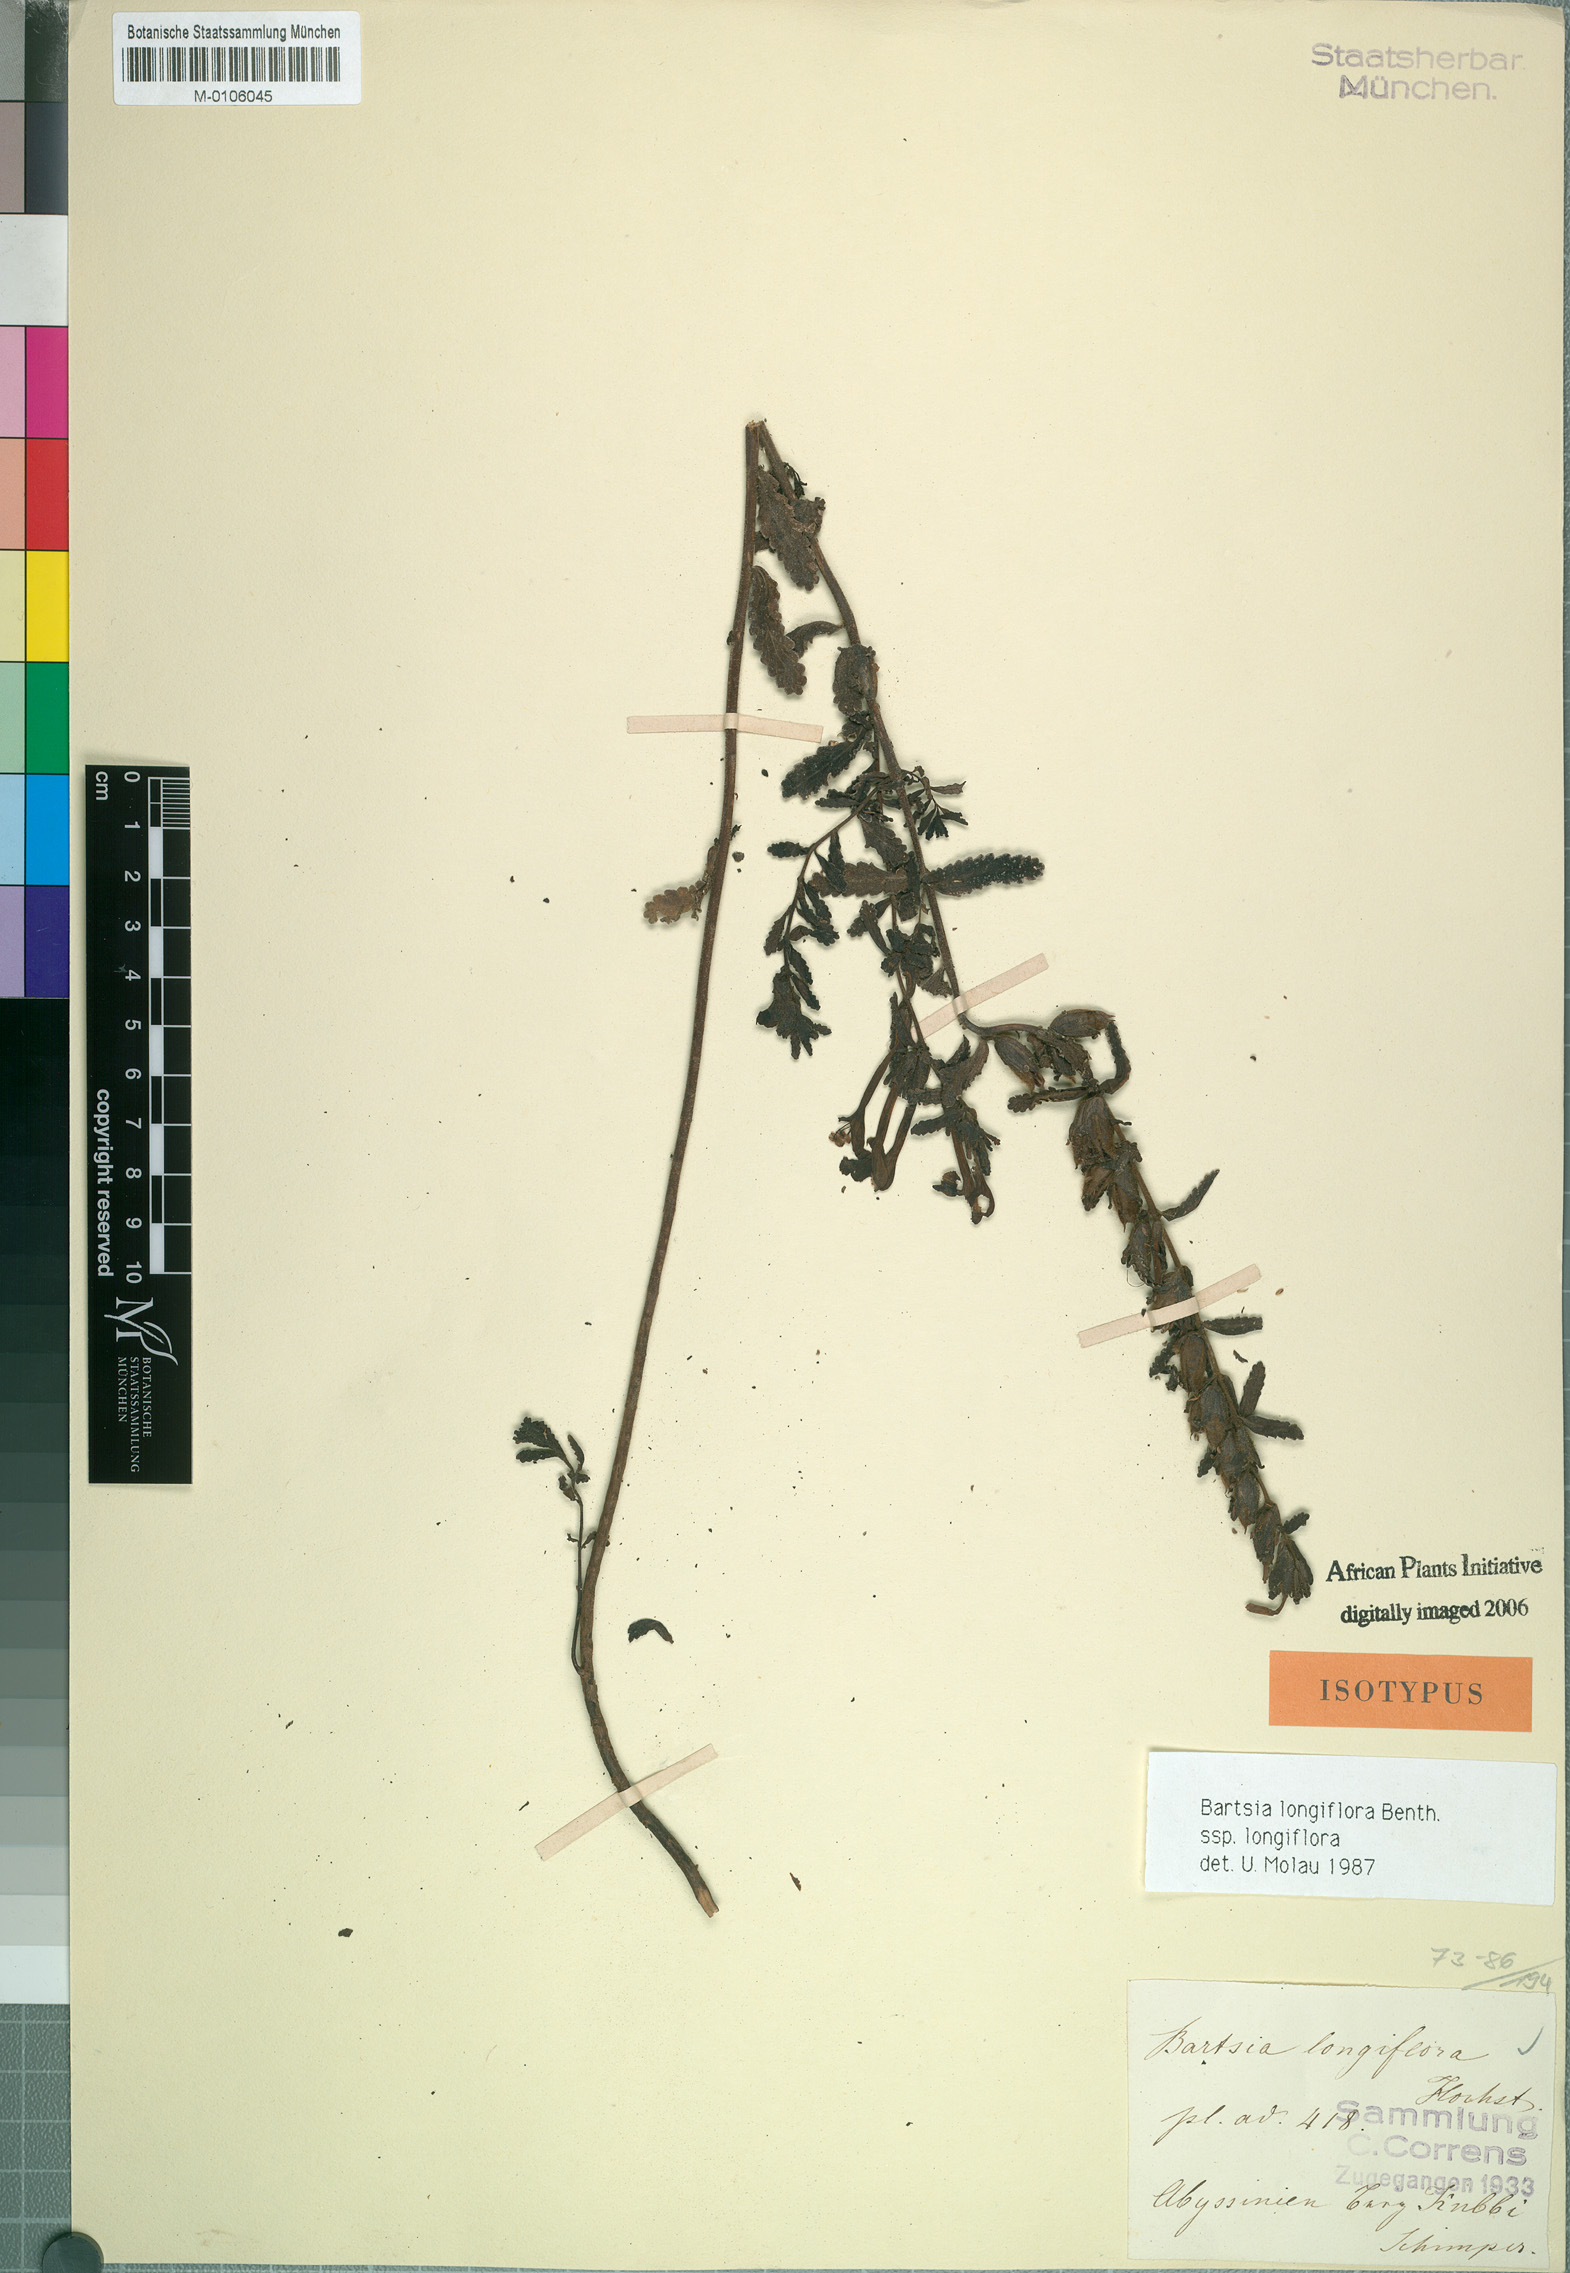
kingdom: Plantae
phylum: Tracheophyta
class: Magnoliopsida
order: Lamiales
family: Orobanchaceae
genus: Hedbergia
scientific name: Hedbergia longiflora
